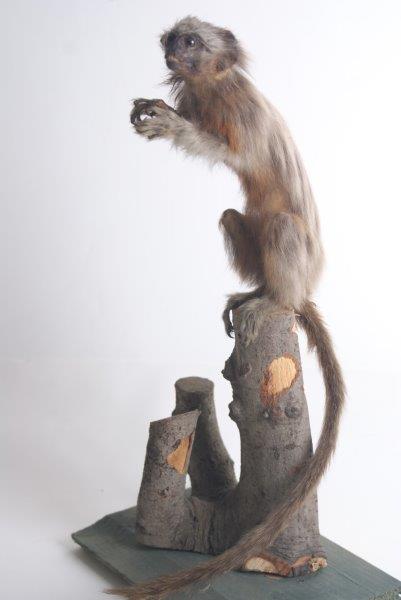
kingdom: Animalia
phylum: Chordata
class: Mammalia
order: Primates
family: Callitrichidae
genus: Saguinus
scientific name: Saguinus bicolor
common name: Pied Tamarin
